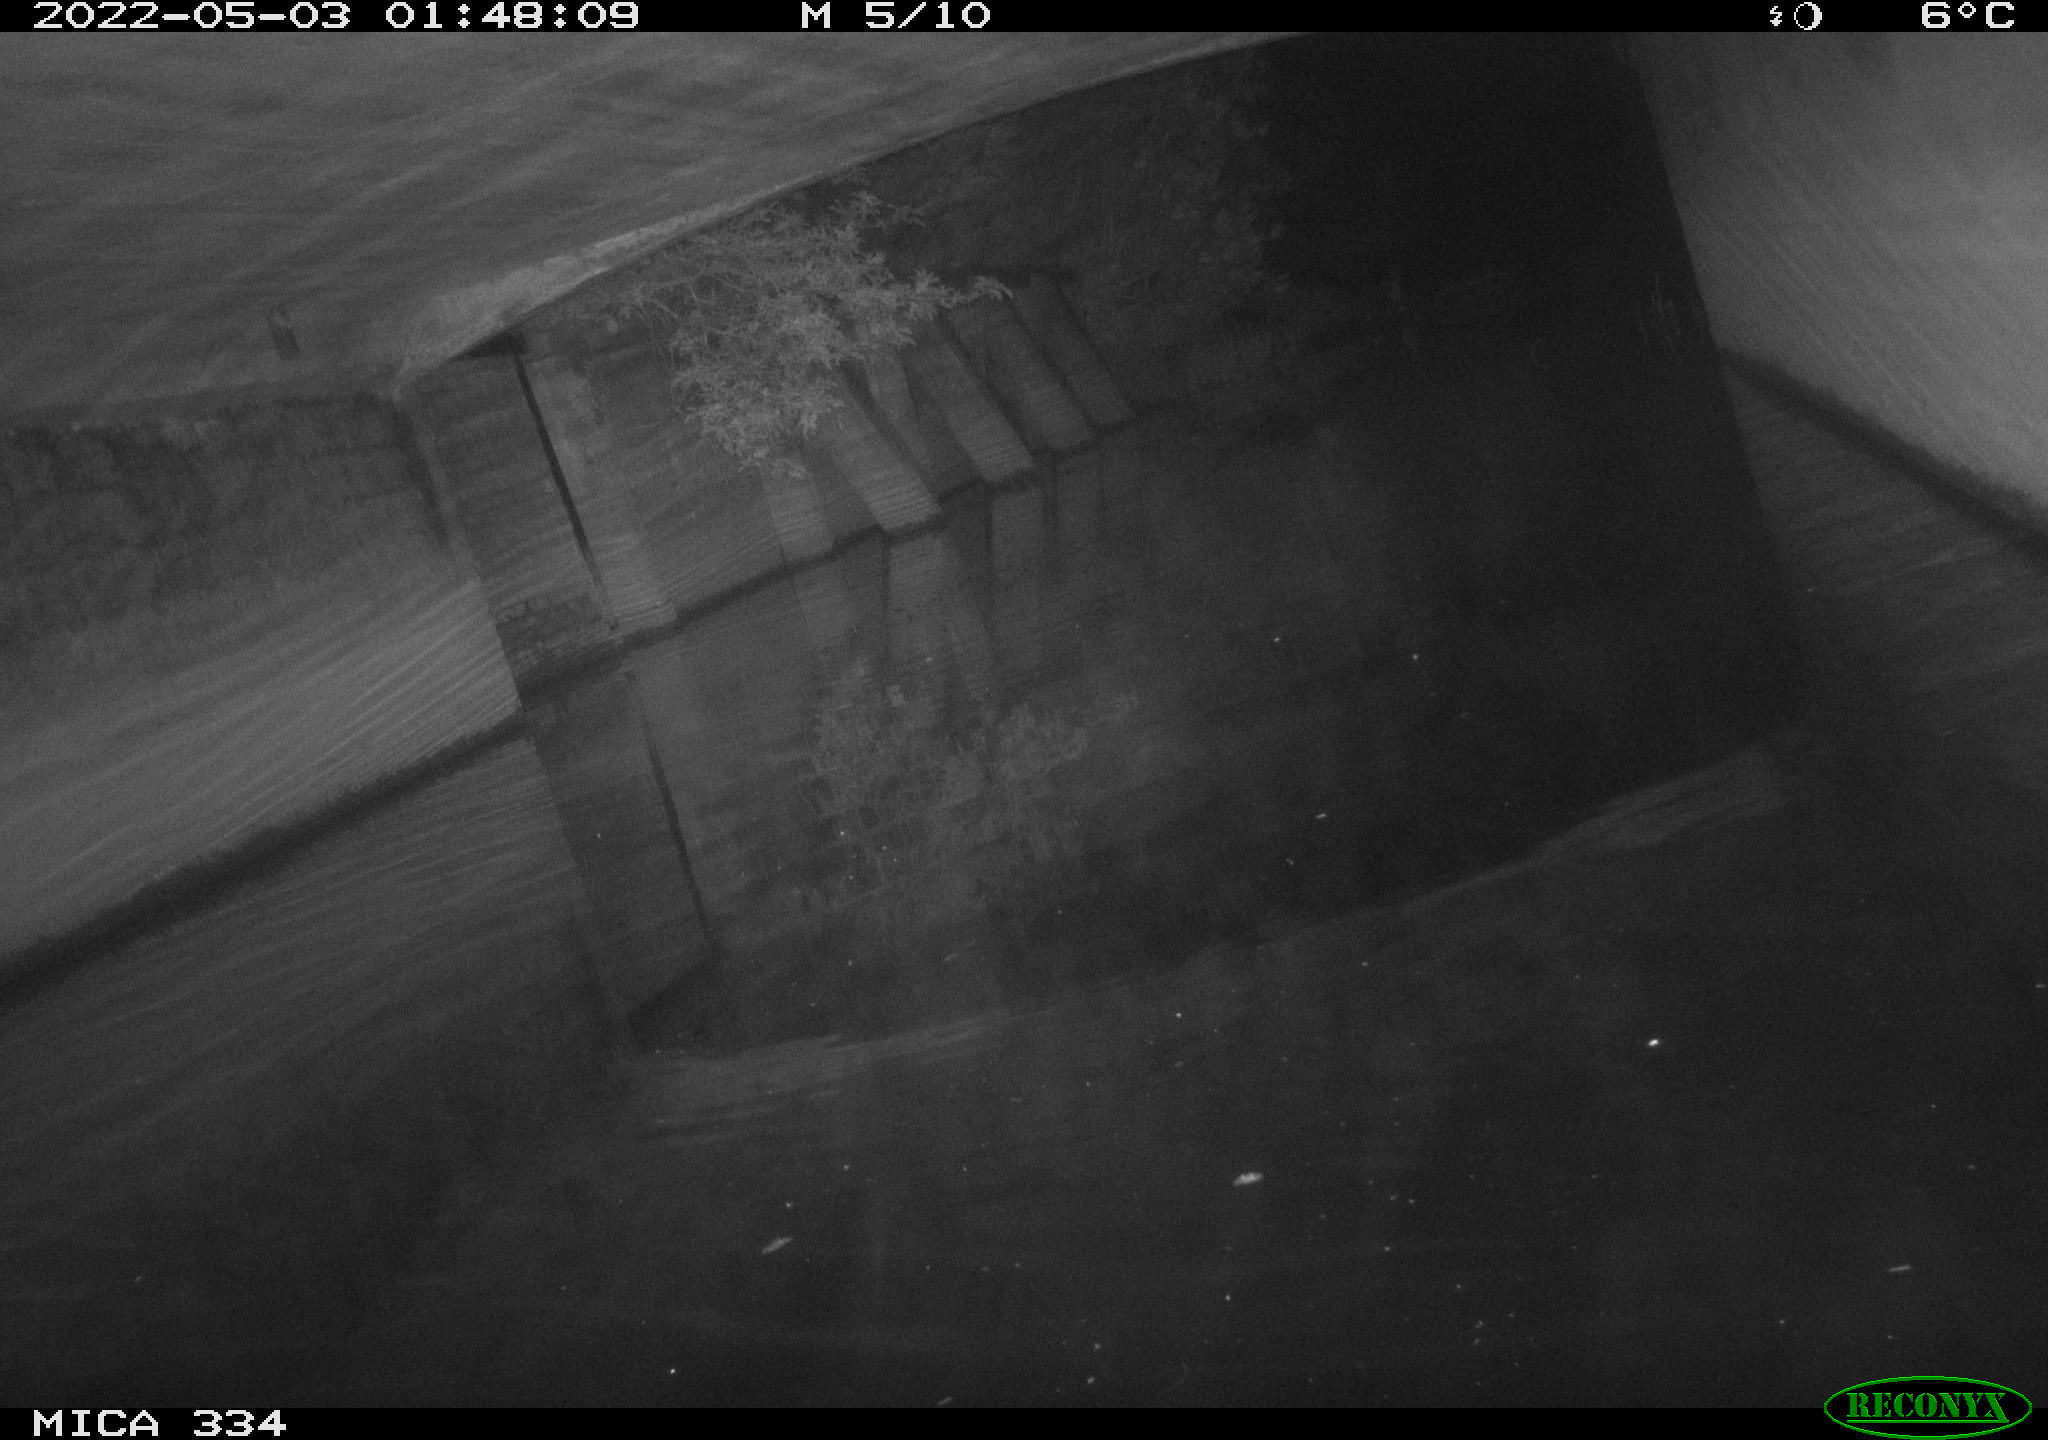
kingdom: Animalia
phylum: Chordata
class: Aves
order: Anseriformes
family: Anatidae
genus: Anas
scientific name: Anas platyrhynchos
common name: Mallard
